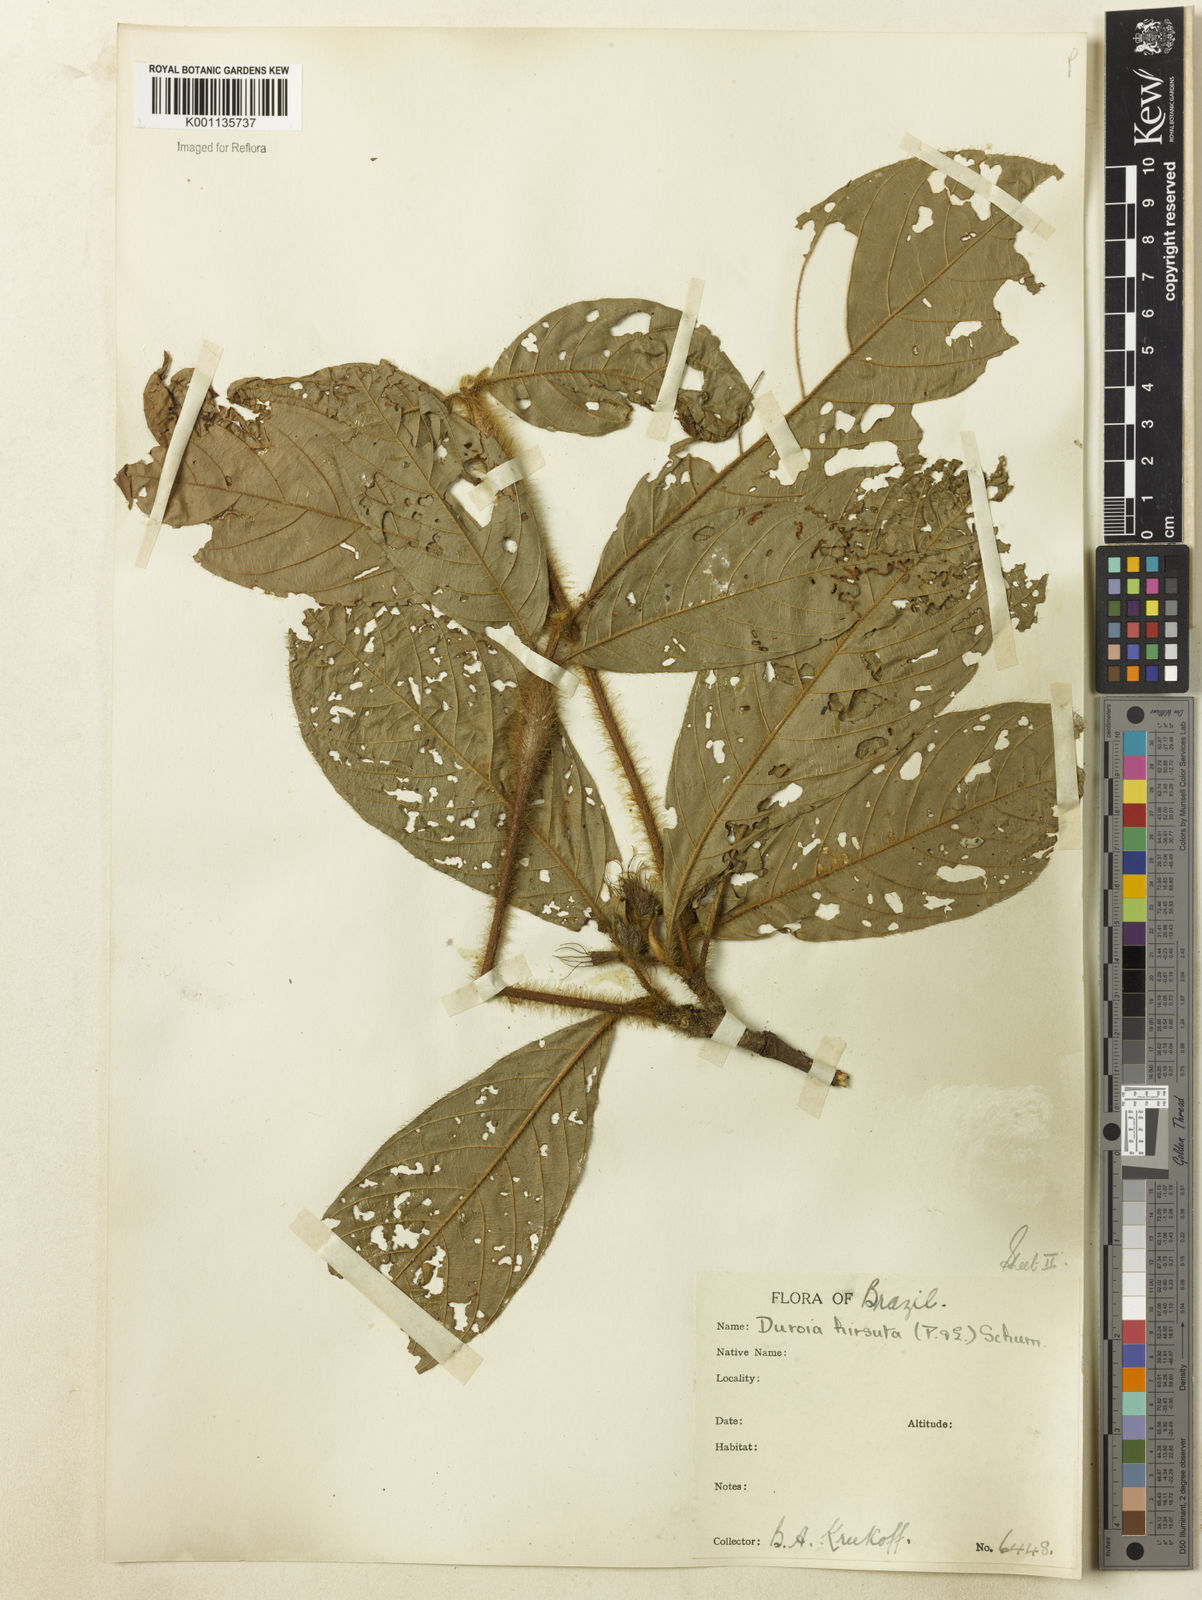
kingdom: Plantae
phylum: Tracheophyta
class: Magnoliopsida
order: Gentianales
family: Rubiaceae
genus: Duroia
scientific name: Duroia hirsuta
